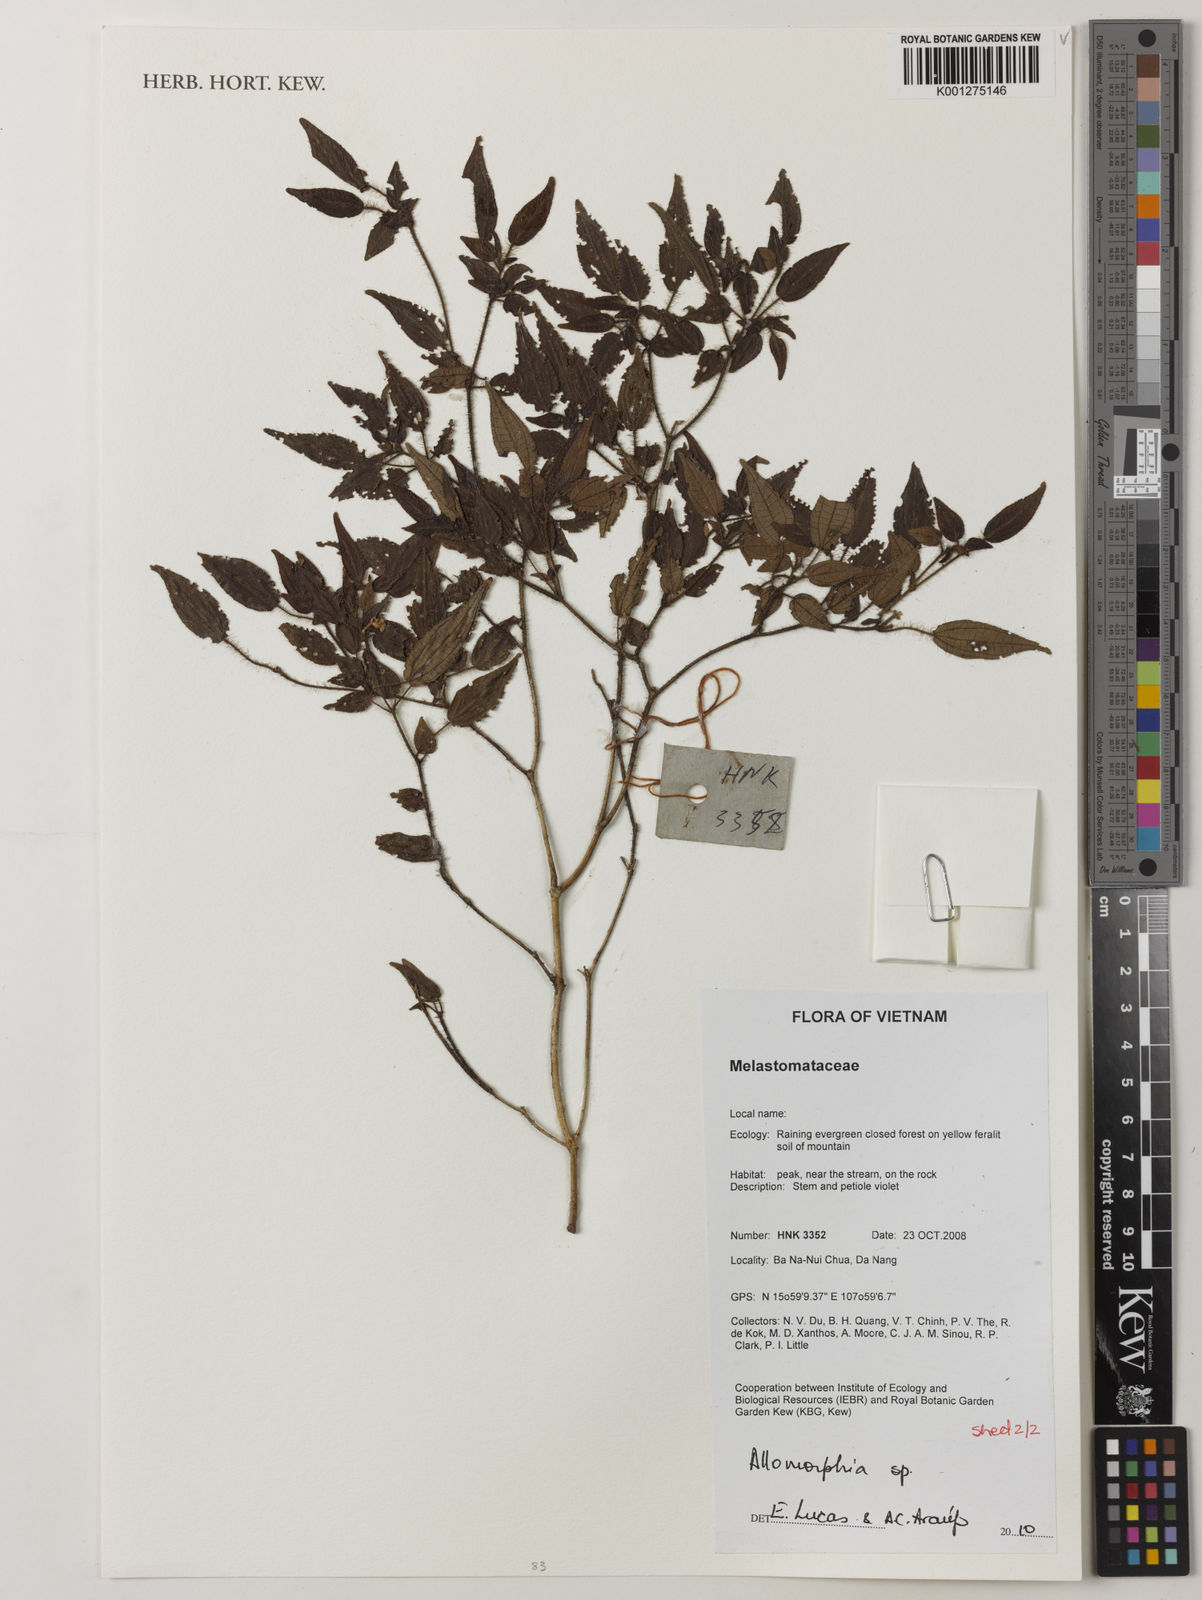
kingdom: Plantae
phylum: Tracheophyta
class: Magnoliopsida
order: Myrtales
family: Melastomataceae
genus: Allomorphia
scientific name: Allomorphia
